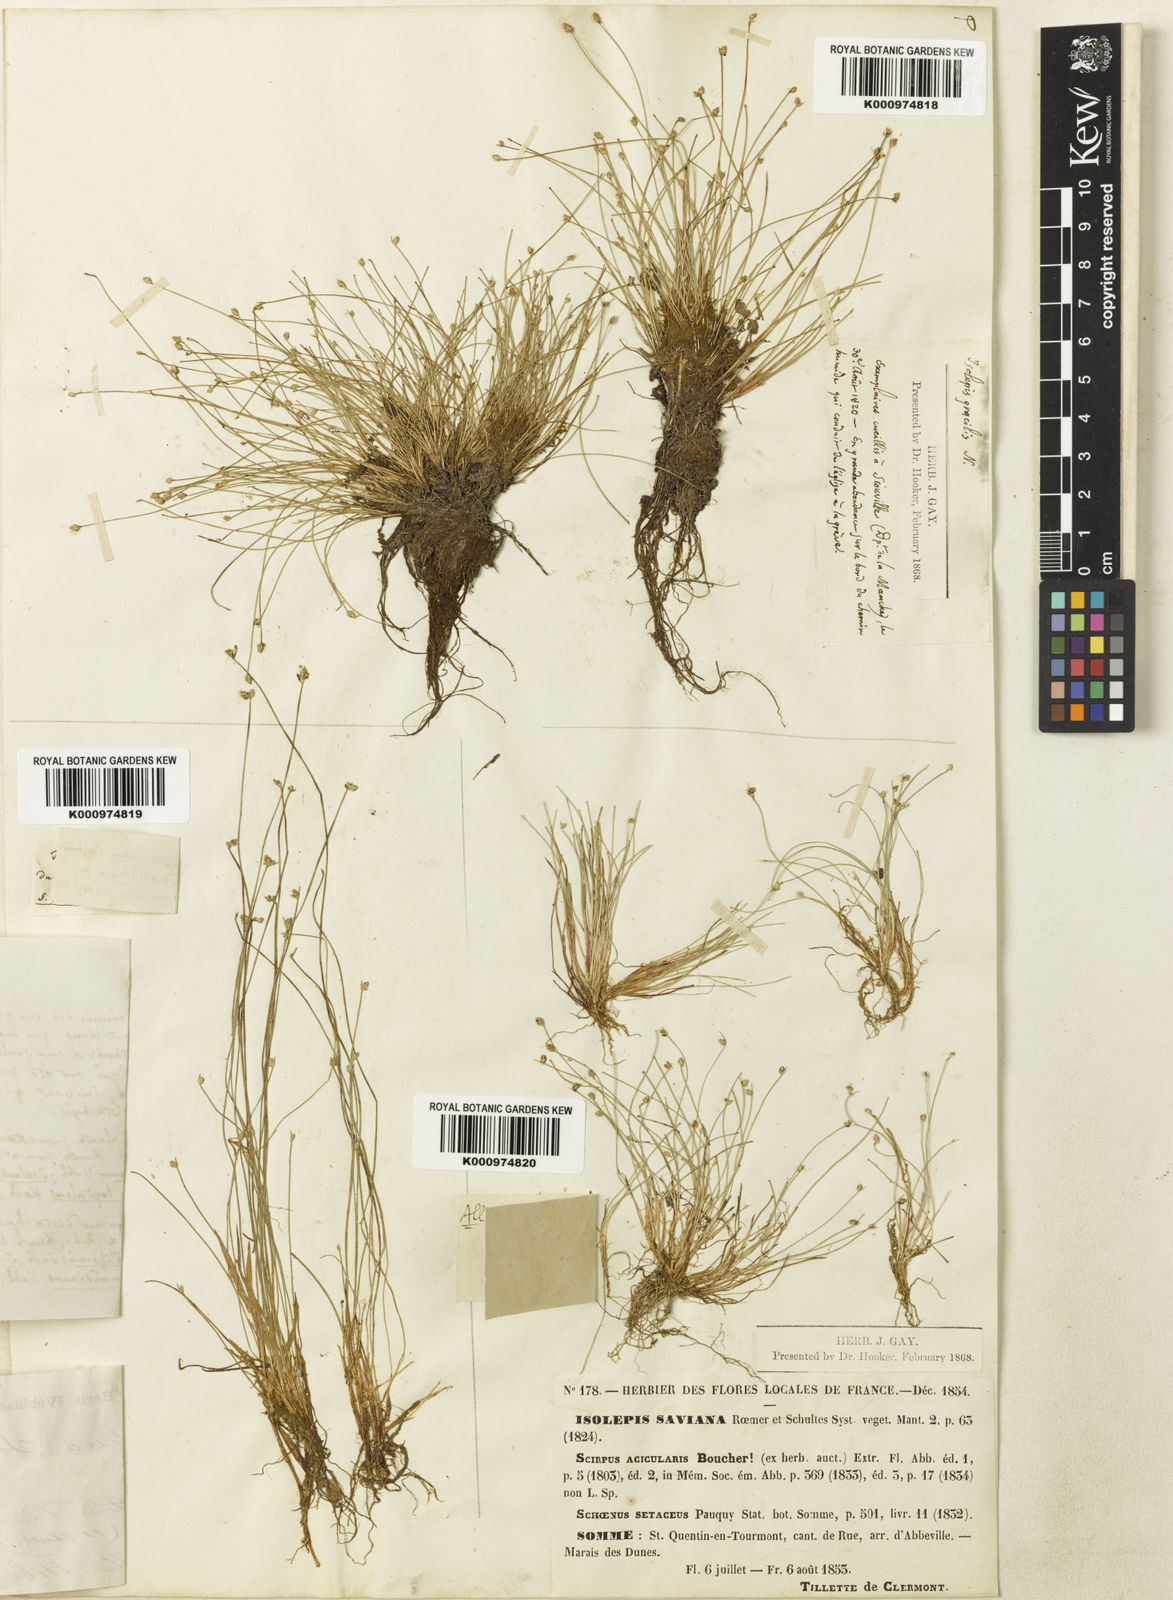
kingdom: Plantae
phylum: Tracheophyta
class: Liliopsida
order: Poales
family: Cyperaceae
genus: Isolepis
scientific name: Isolepis cernua
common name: Slender club-rush
